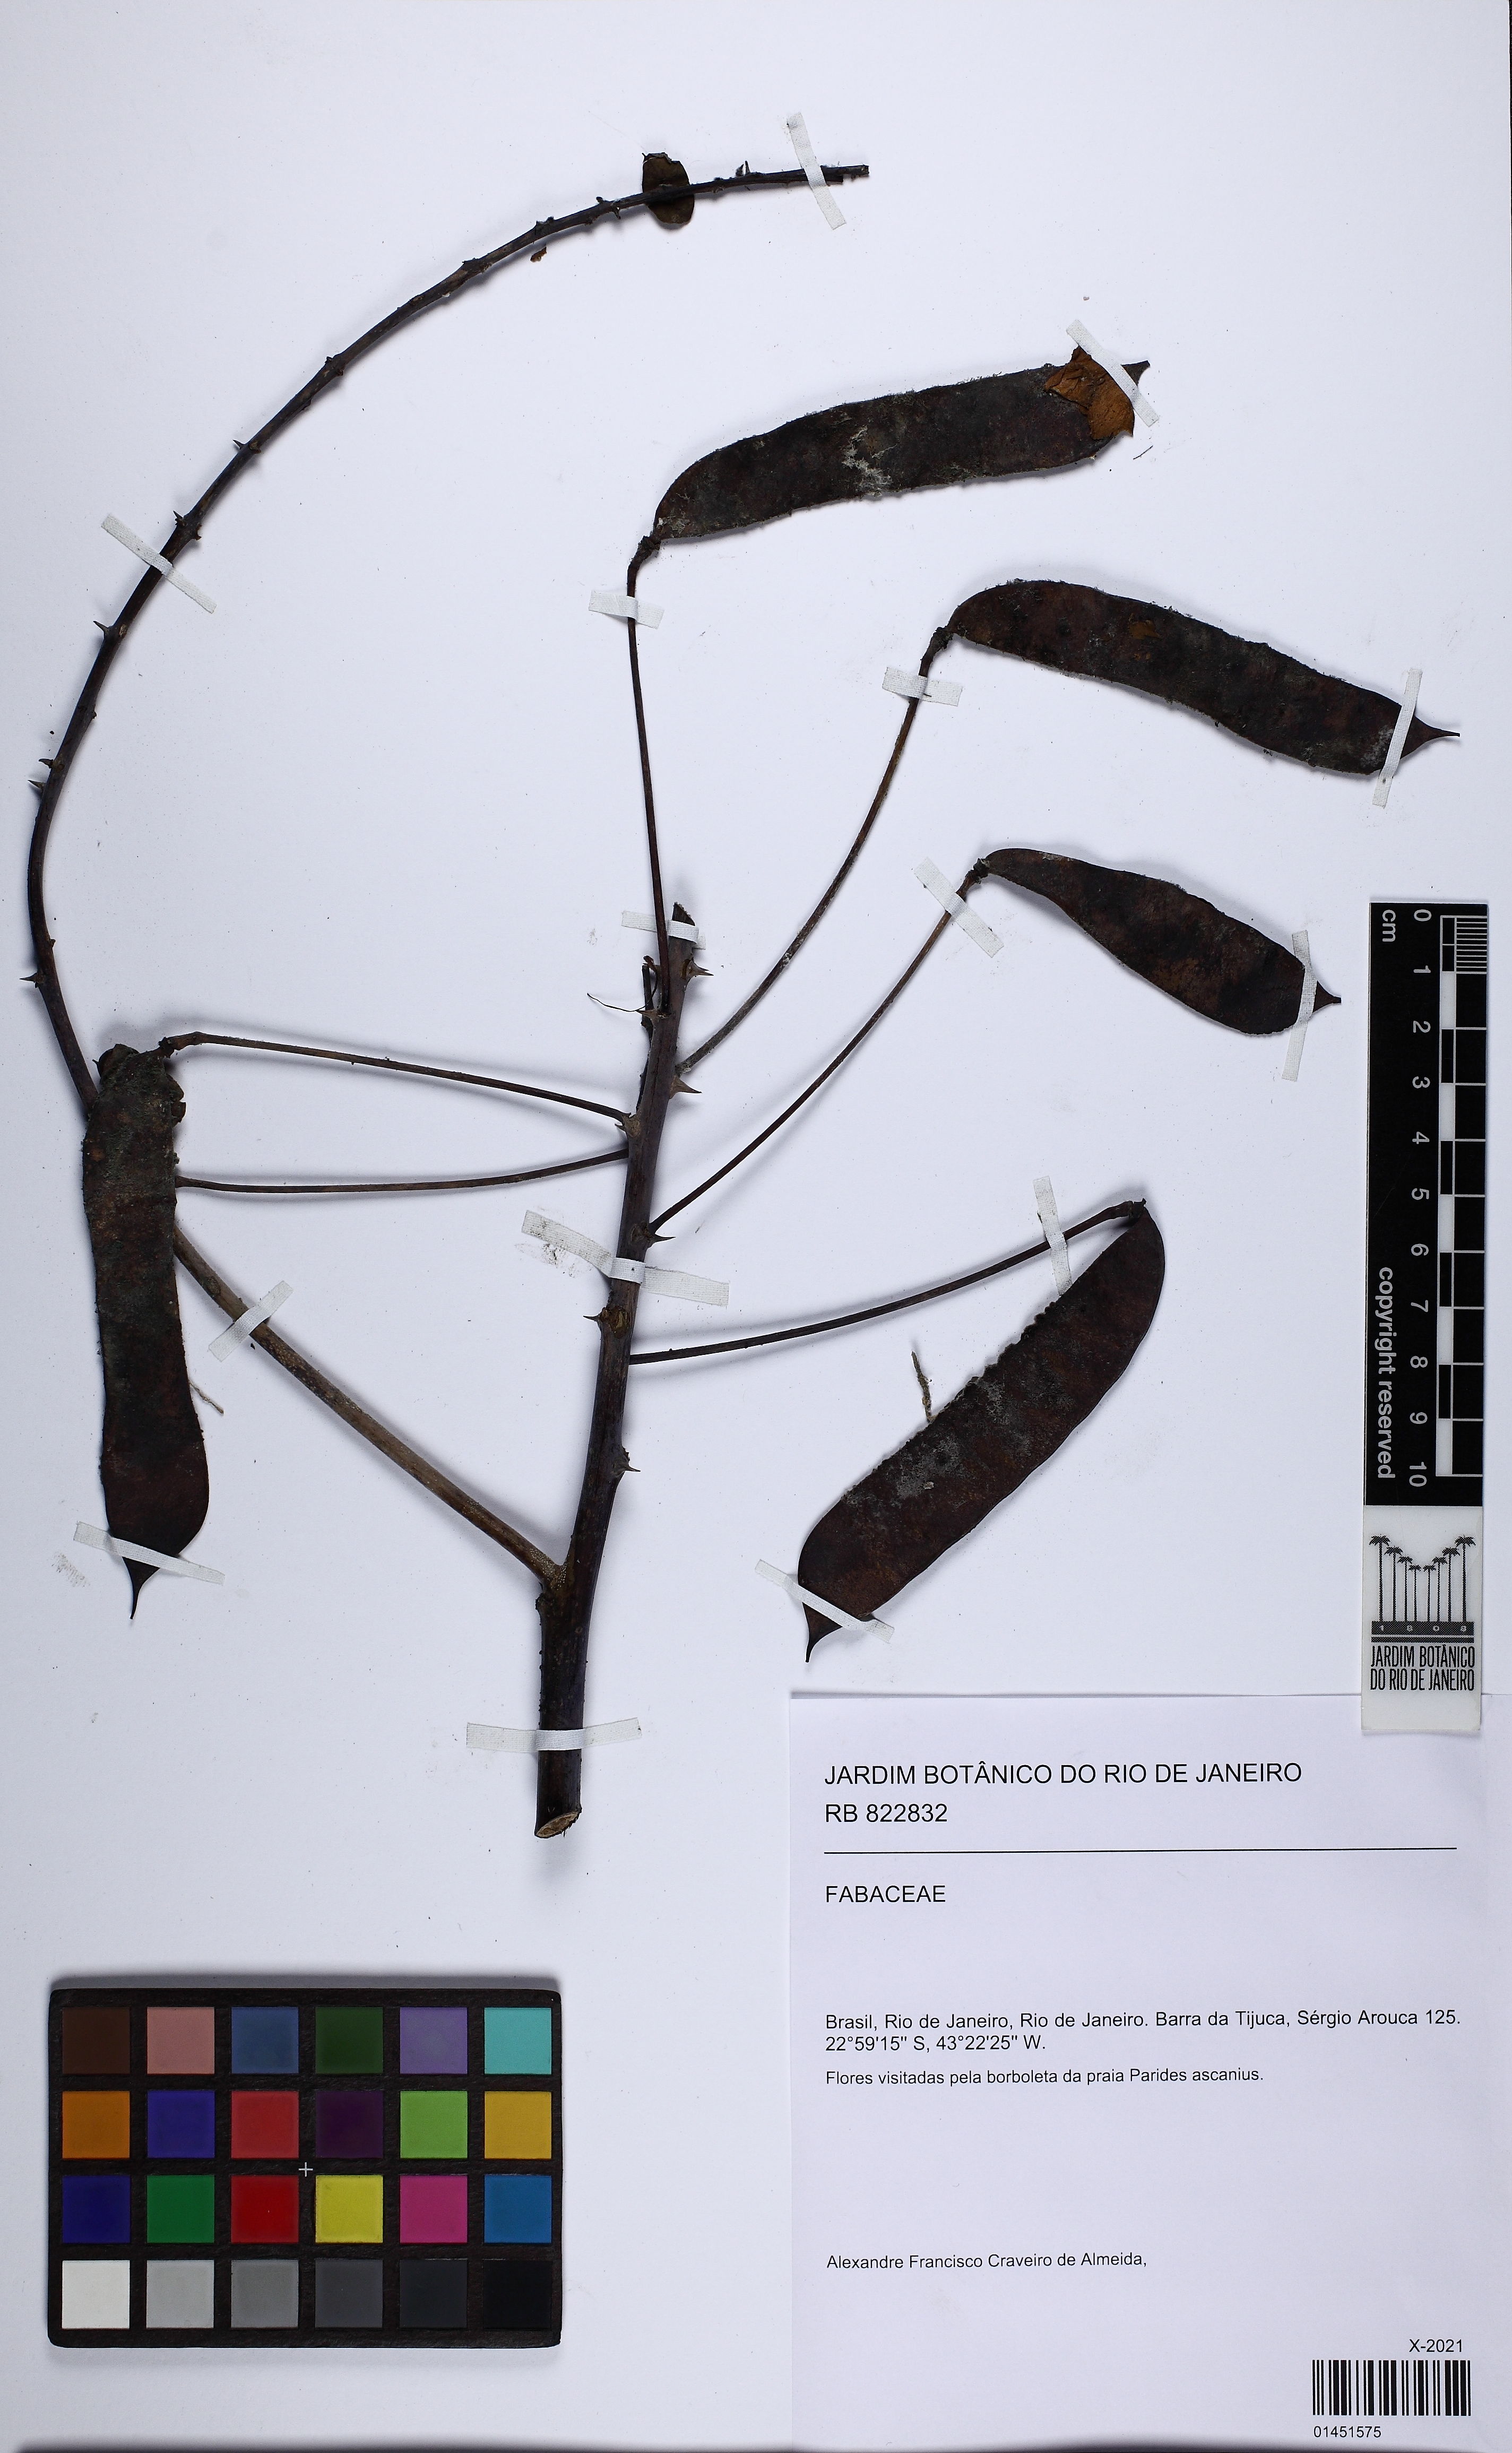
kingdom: Plantae
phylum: Tracheophyta
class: Magnoliopsida
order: Fabales
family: Fabaceae
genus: Caesalpinia
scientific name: Caesalpinia
